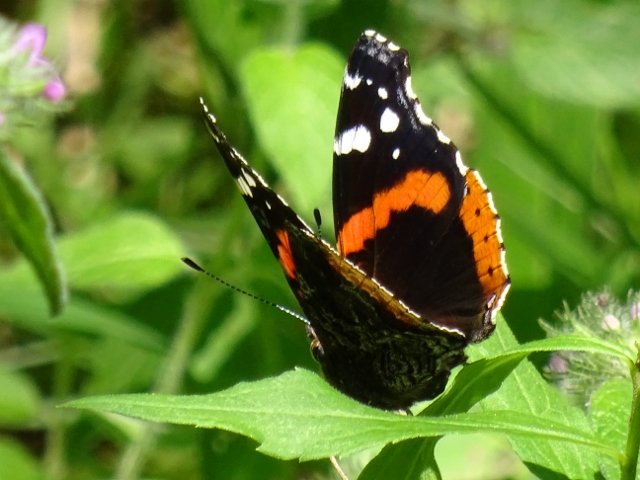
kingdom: Animalia
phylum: Arthropoda
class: Insecta
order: Lepidoptera
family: Nymphalidae
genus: Vanessa
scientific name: Vanessa atalanta
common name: Red Admiral
